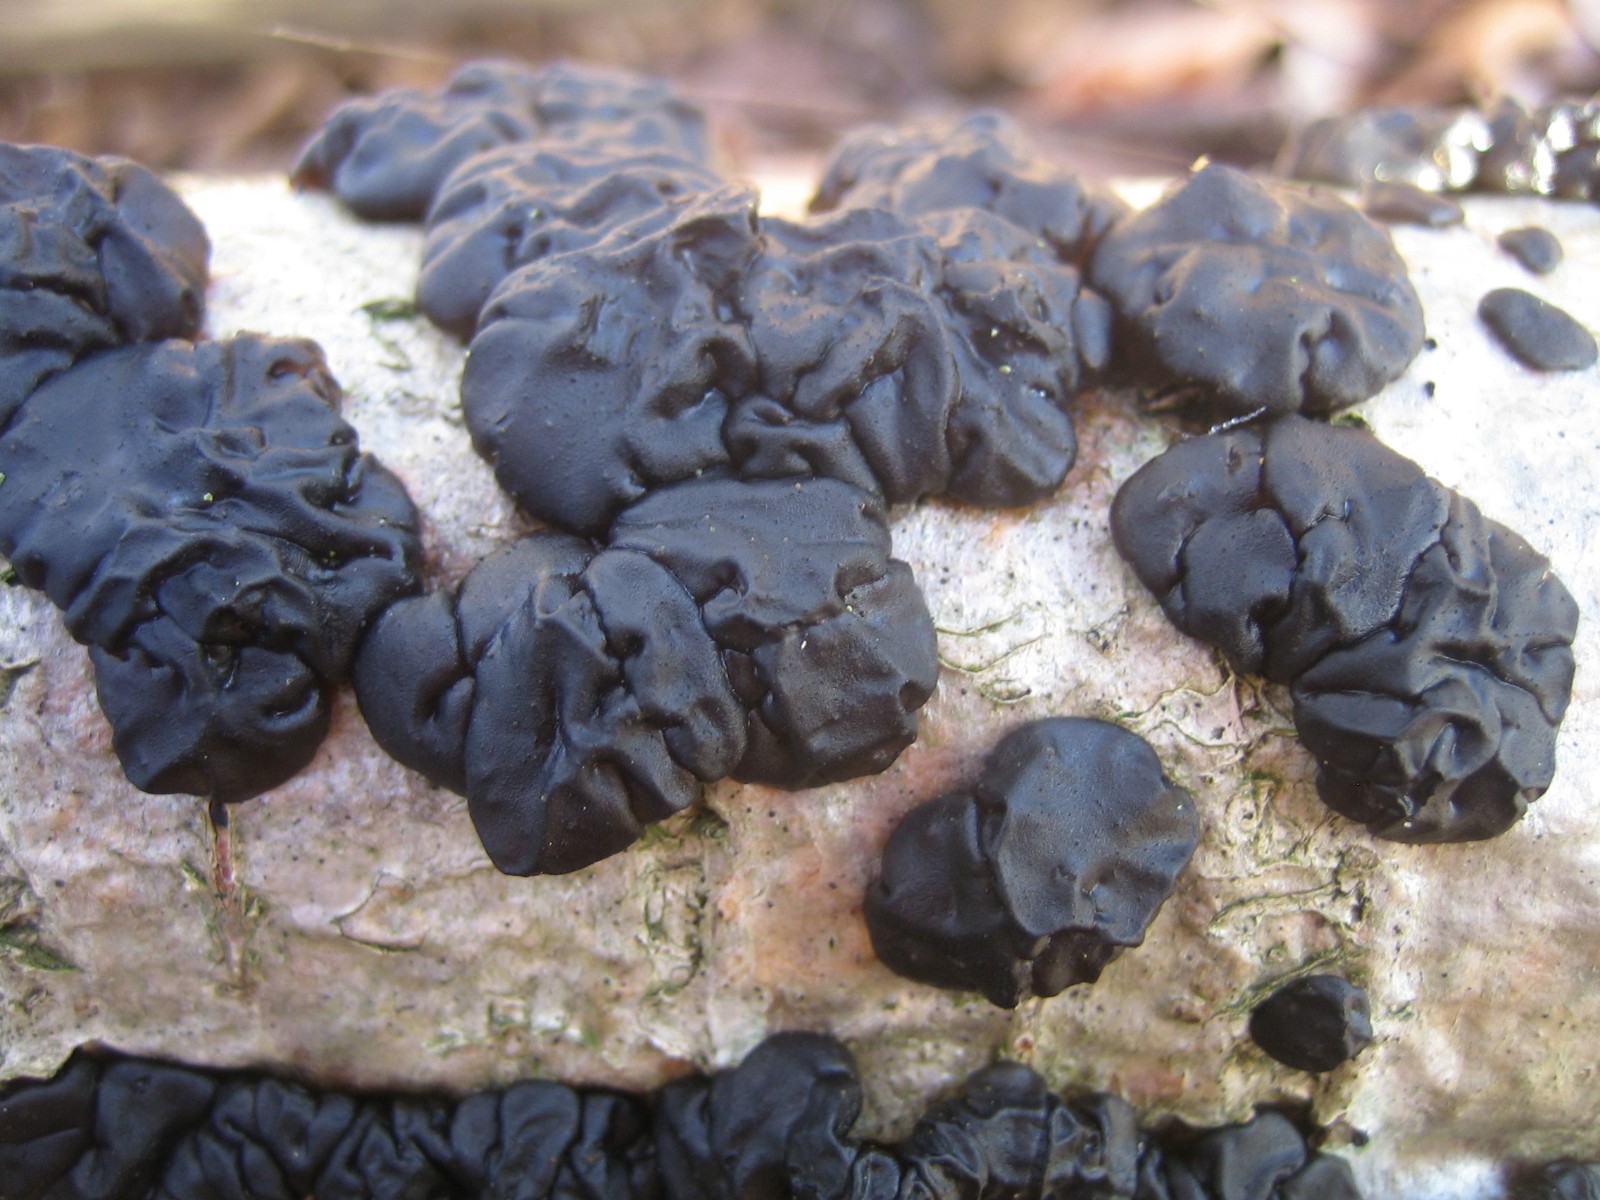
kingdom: Fungi
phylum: Basidiomycota
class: Agaricomycetes
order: Auriculariales
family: Auriculariaceae
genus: Exidia
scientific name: Exidia nigricans
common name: almindelig bævretop
